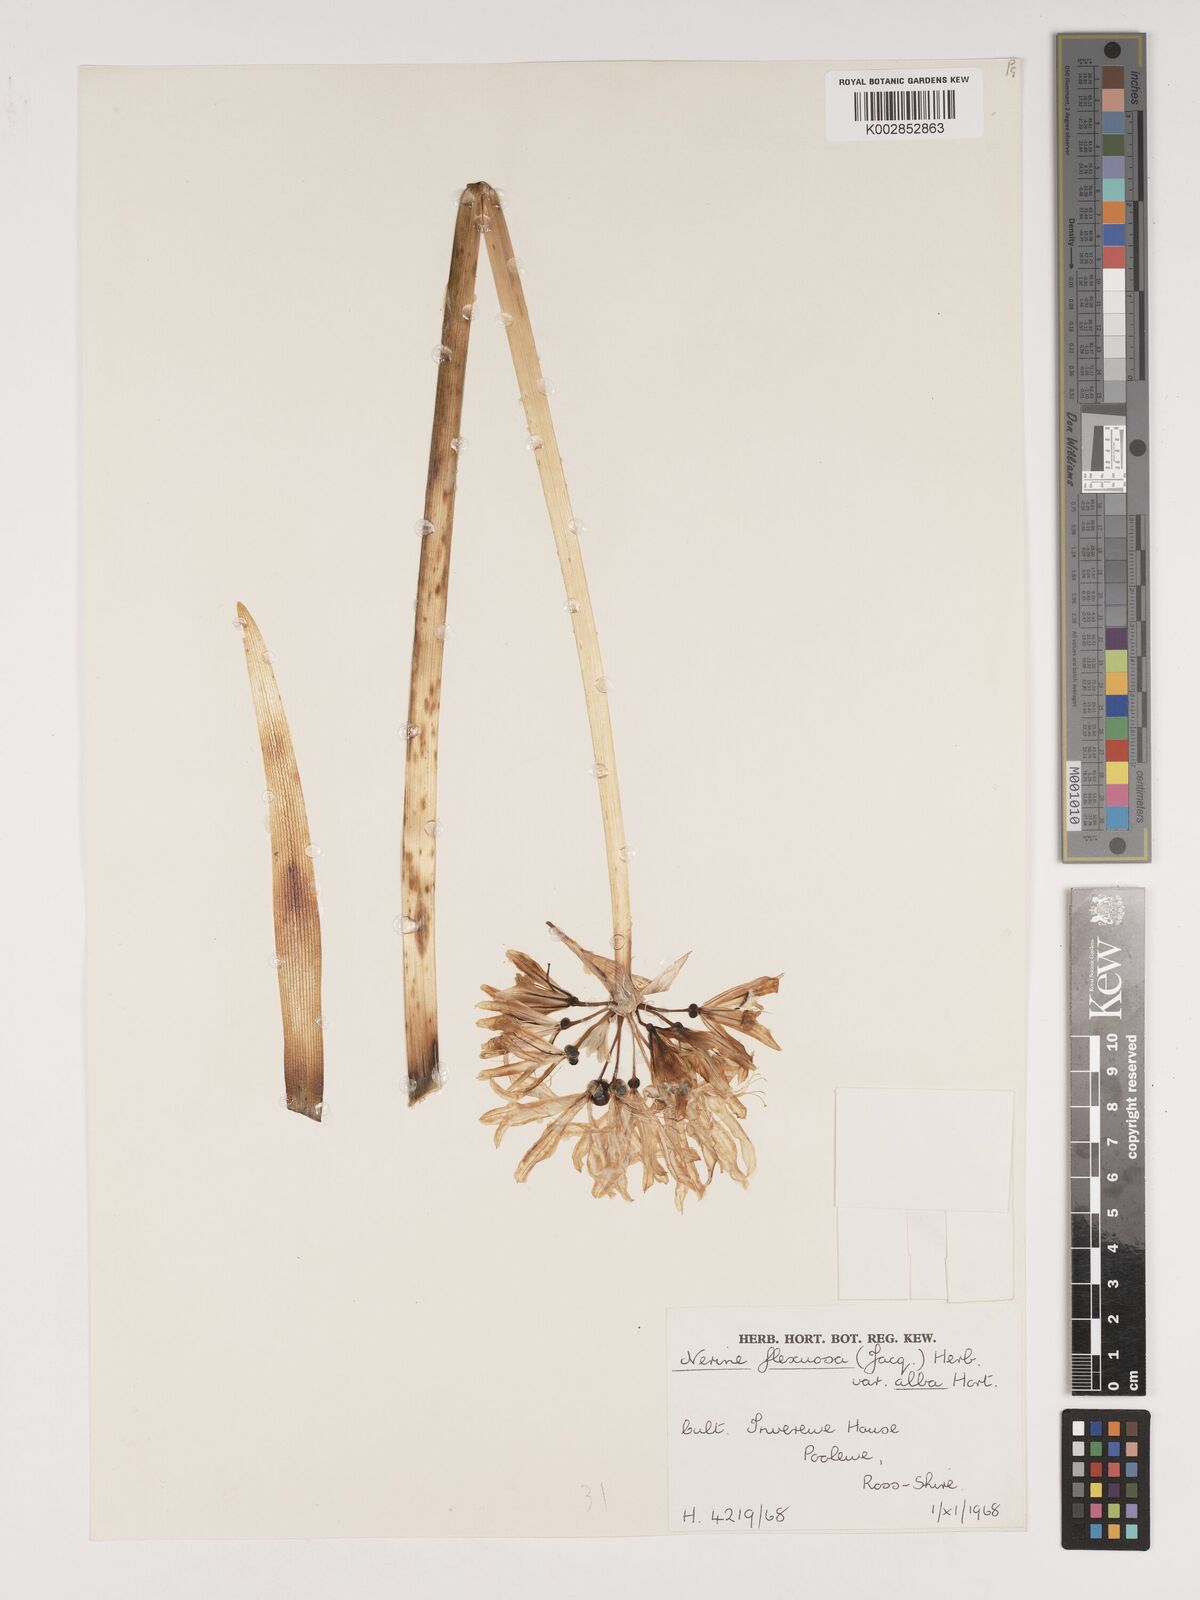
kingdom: Plantae
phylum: Tracheophyta
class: Liliopsida
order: Asparagales
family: Amaryllidaceae
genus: Nerine
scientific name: Nerine undulata
